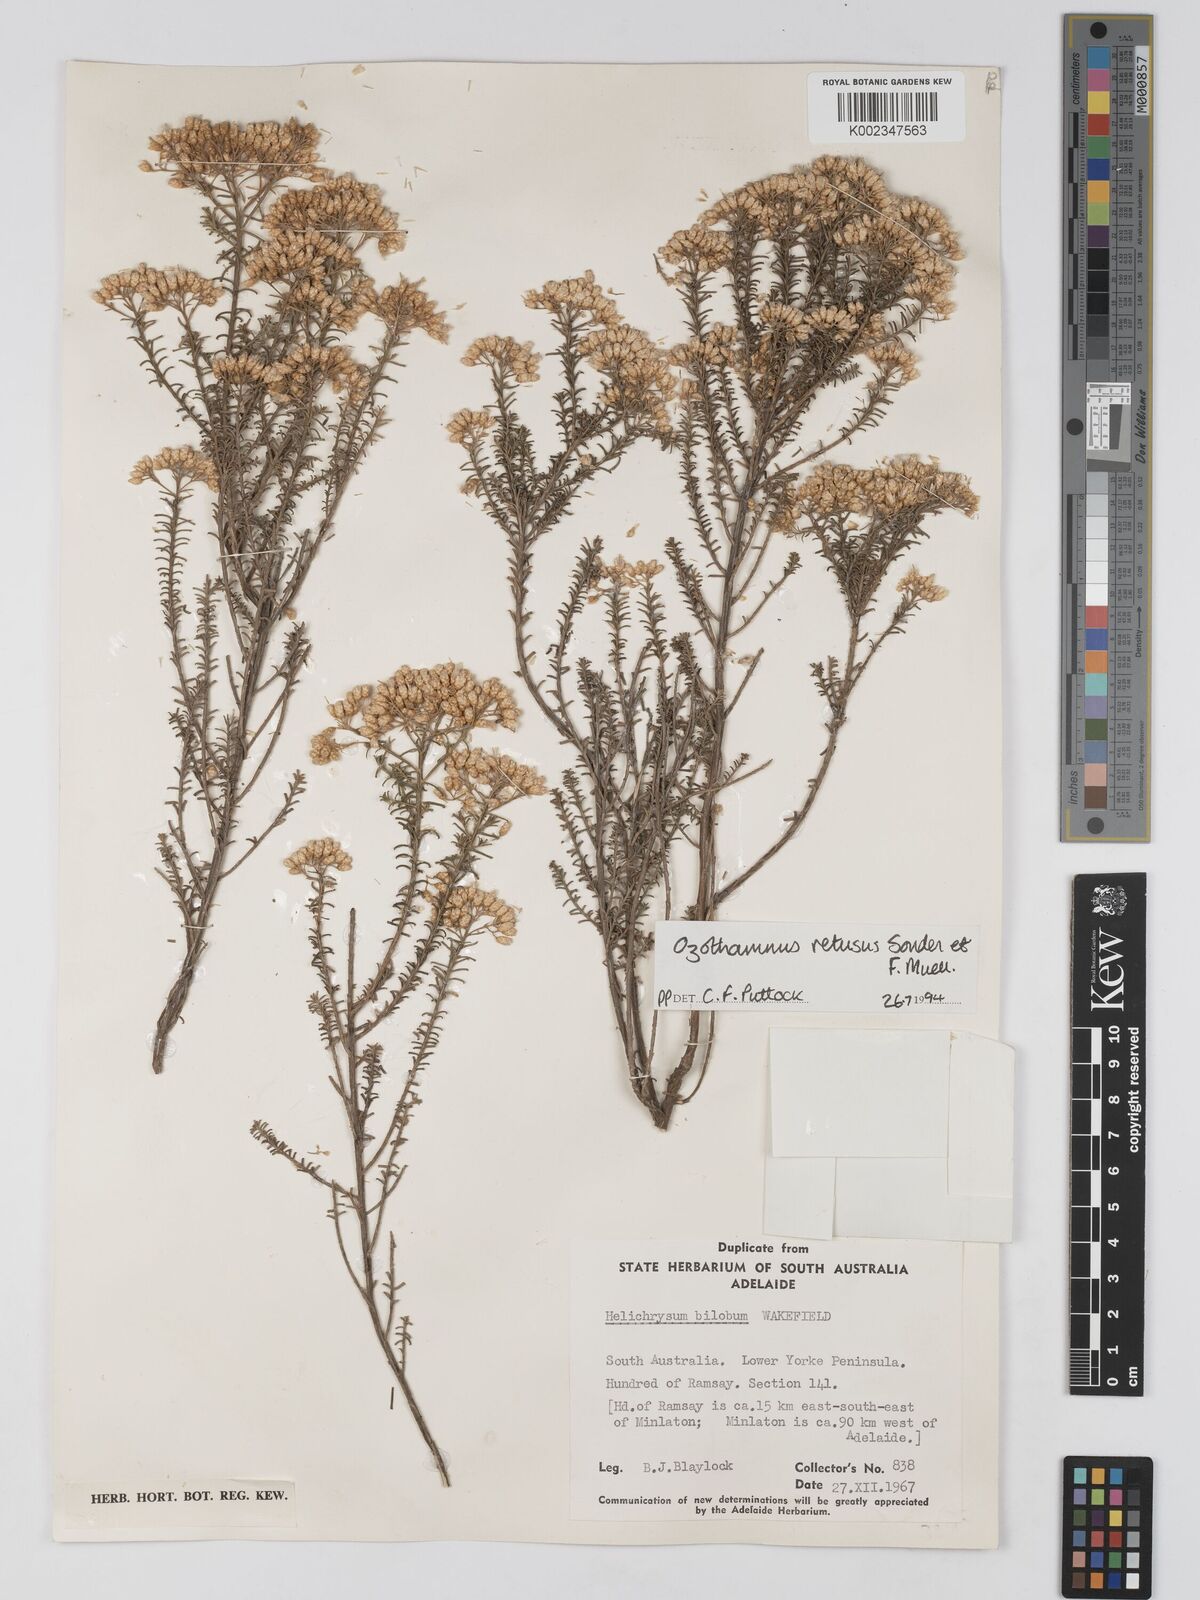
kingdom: Plantae
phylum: Tracheophyta
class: Magnoliopsida
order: Asterales
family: Asteraceae
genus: Ozothamnus
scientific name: Ozothamnus adnatus
